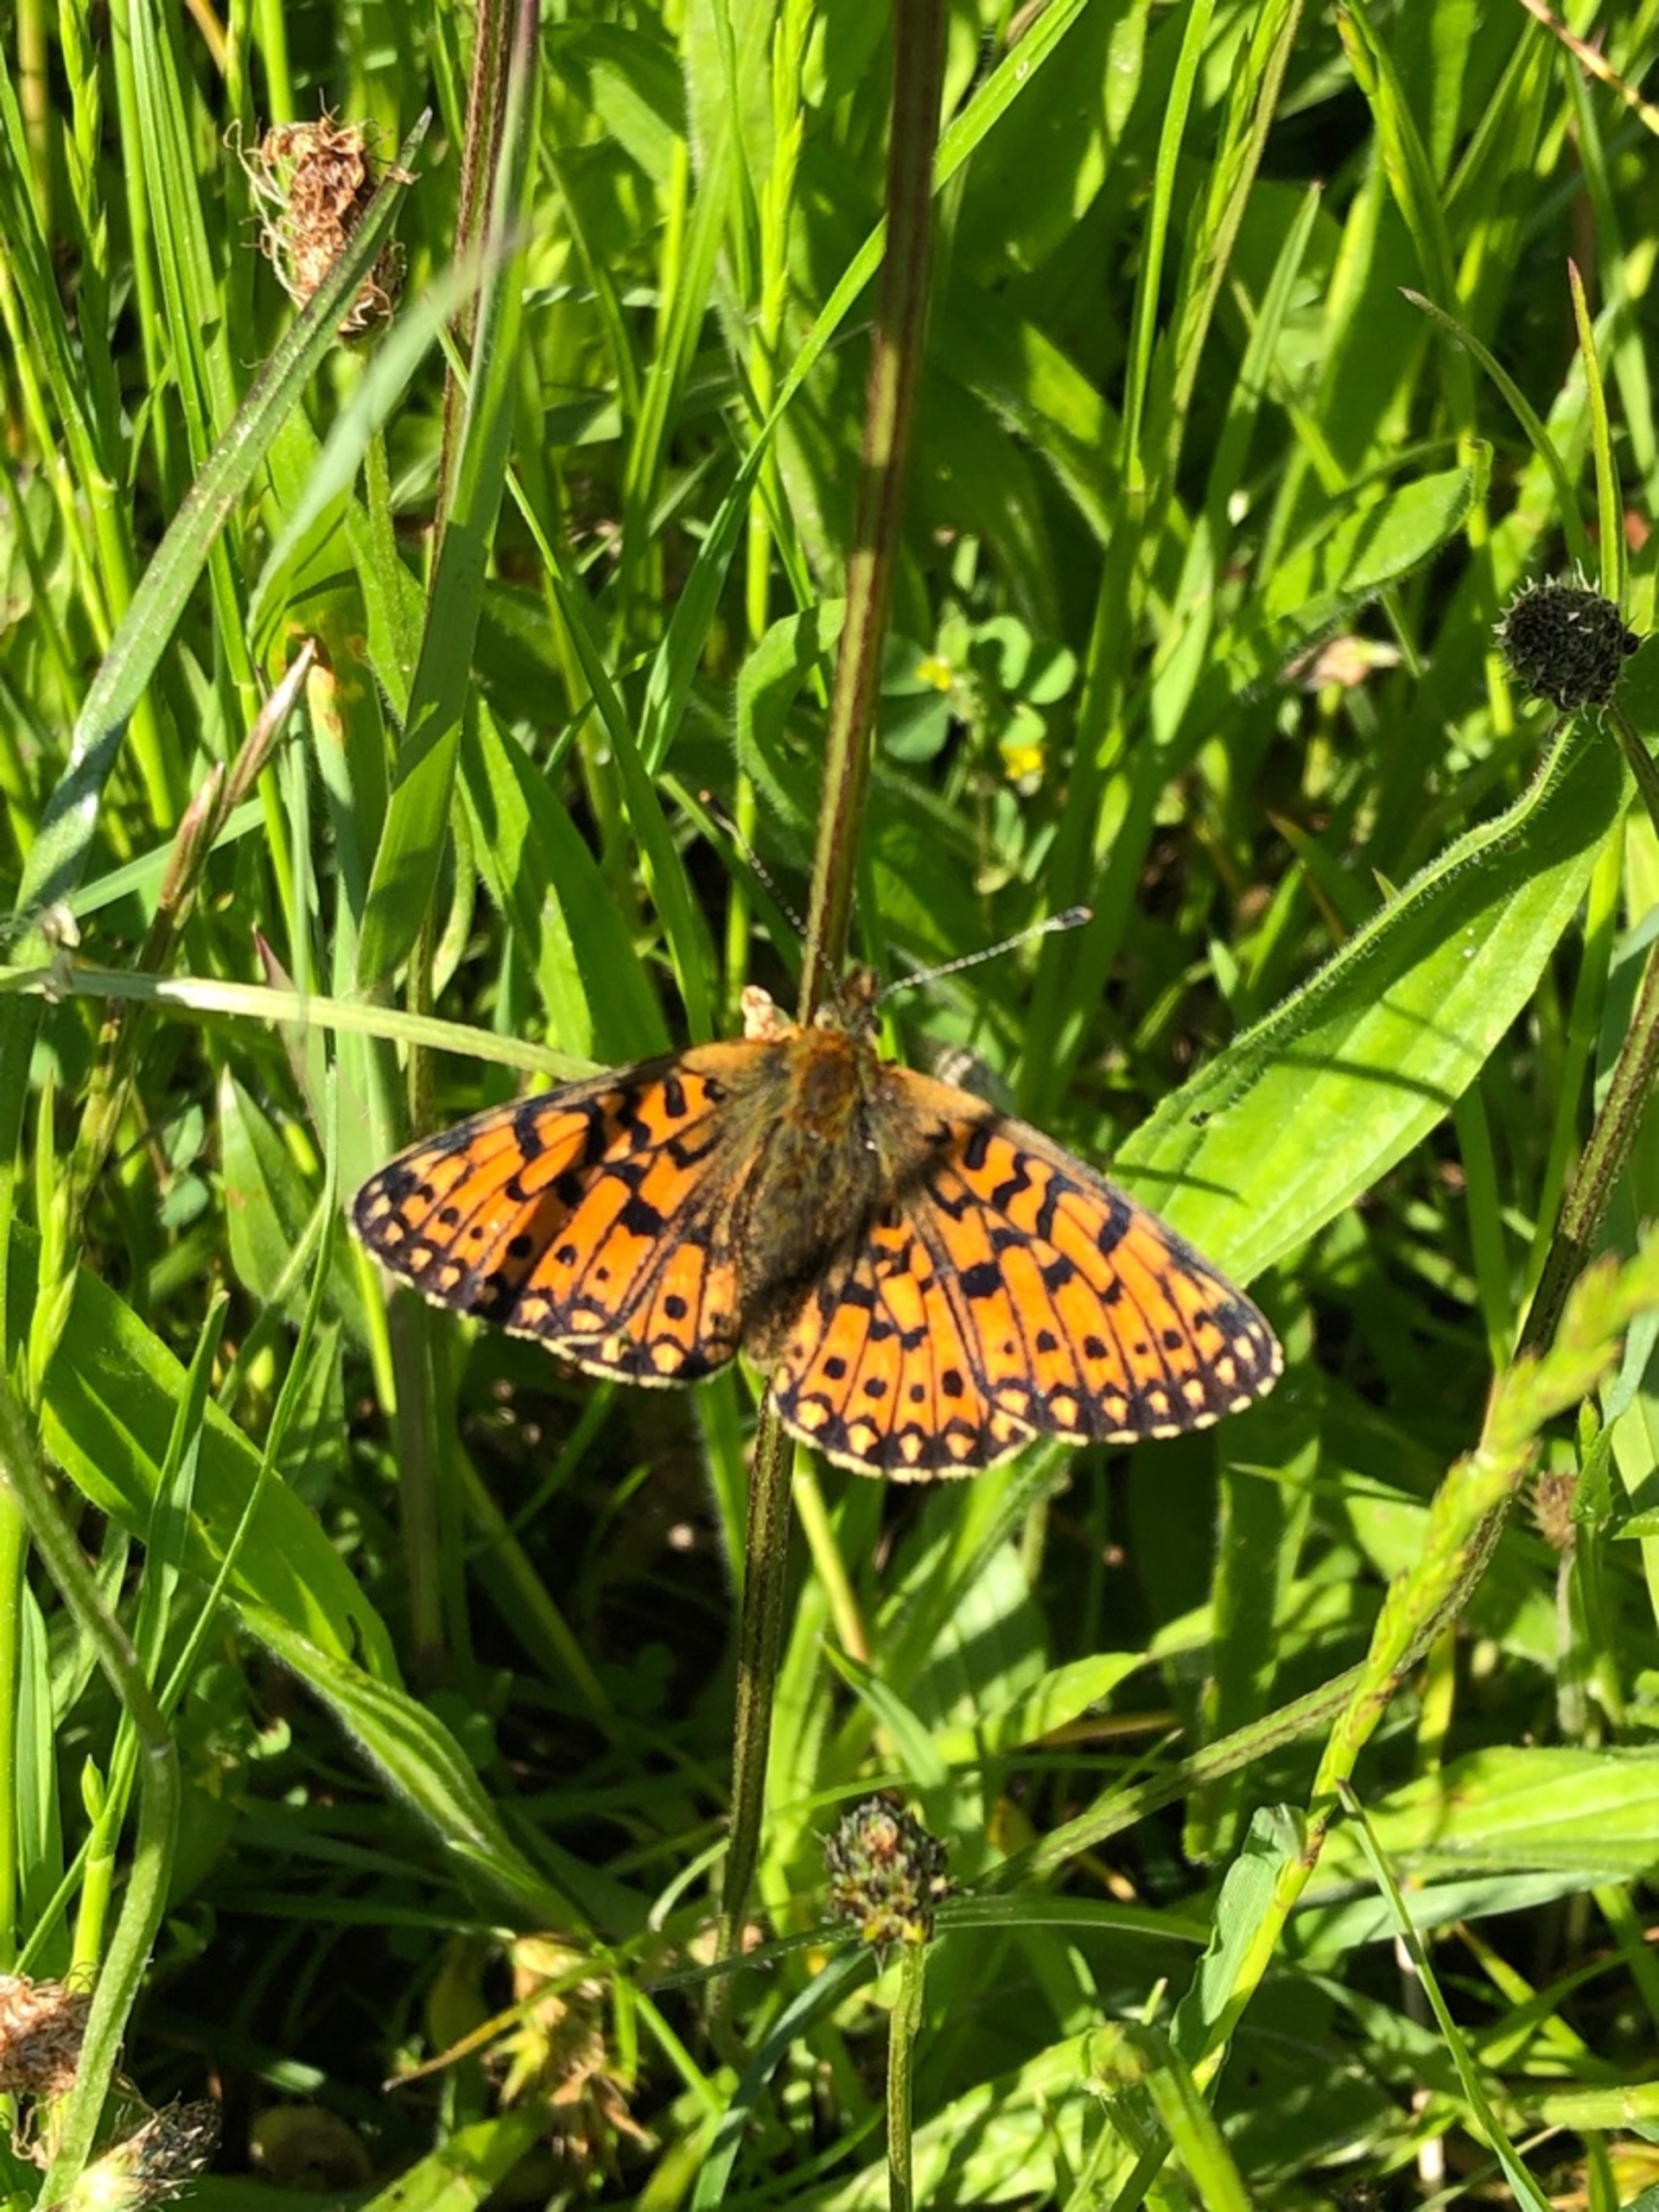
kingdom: Animalia
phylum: Arthropoda
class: Insecta
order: Lepidoptera
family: Nymphalidae
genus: Boloria
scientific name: Boloria selene
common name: Brunlig perlemorsommerfugl
